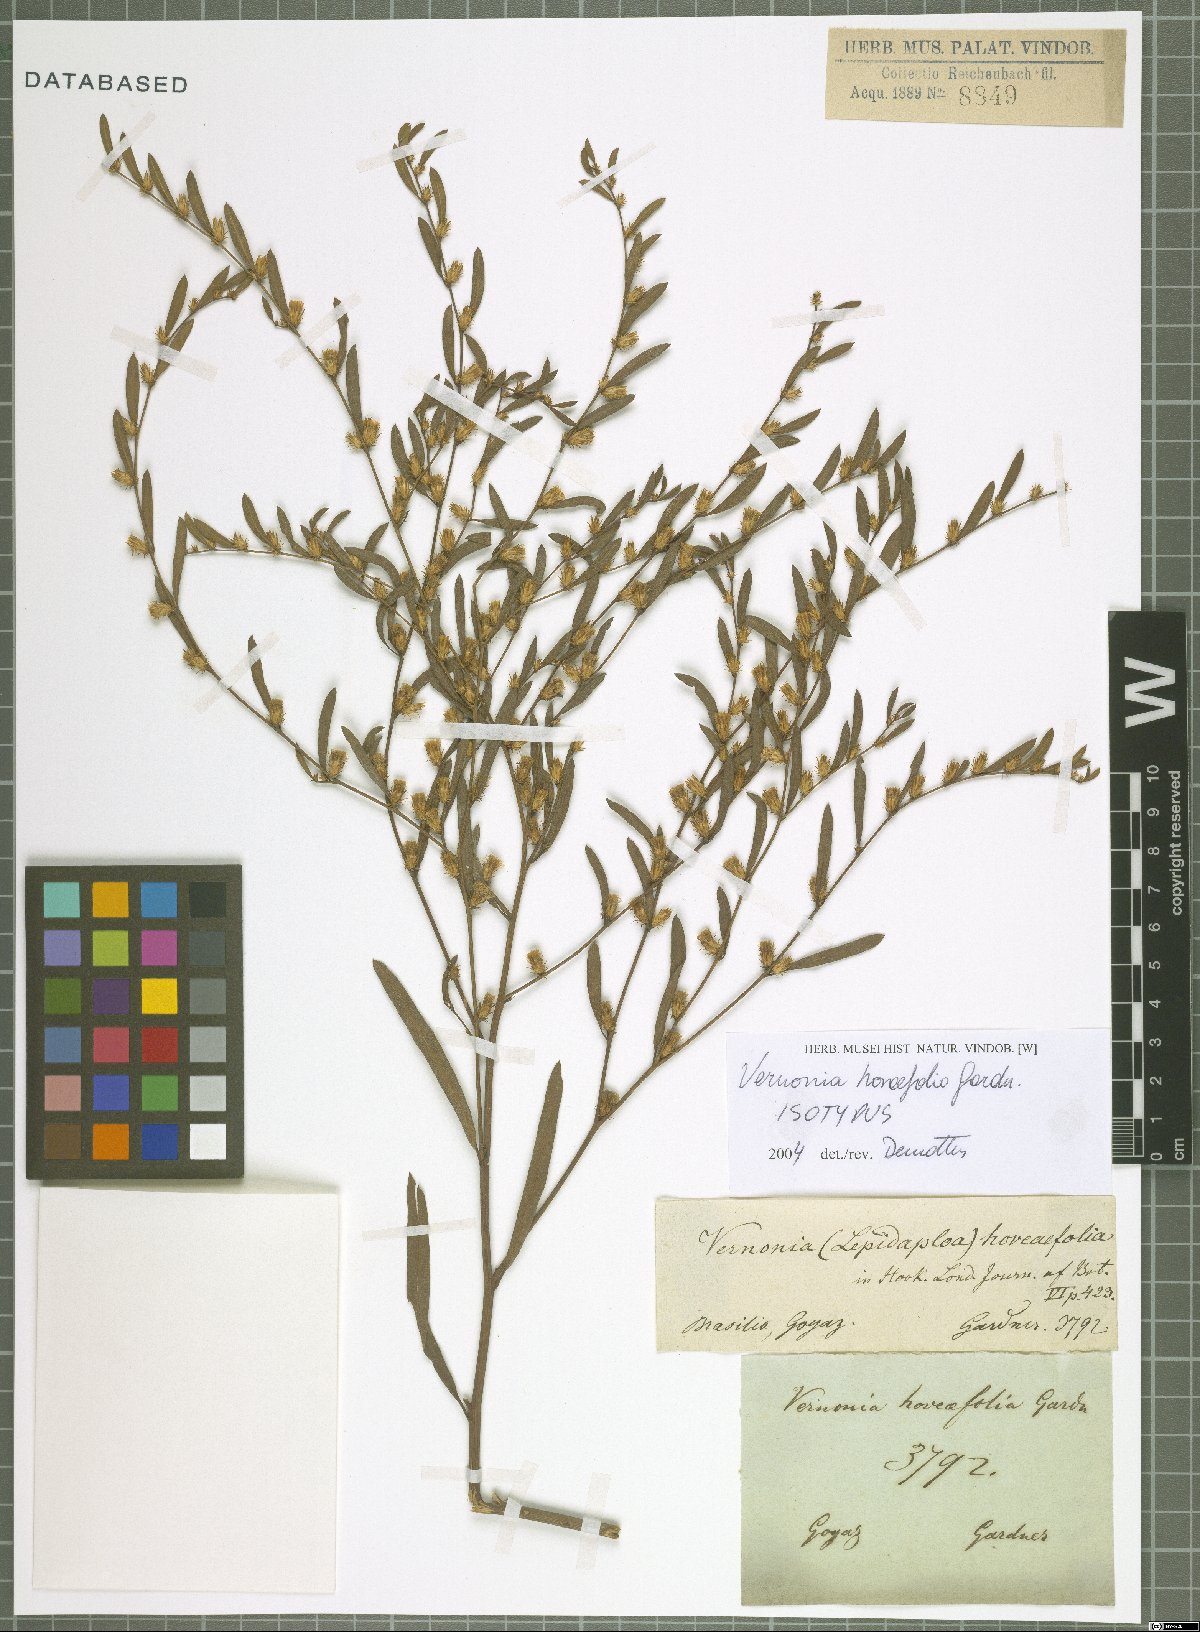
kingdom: Plantae
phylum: Tracheophyta
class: Magnoliopsida
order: Asterales
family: Asteraceae
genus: Lessingianthus
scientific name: Lessingianthus hoveaefolius
